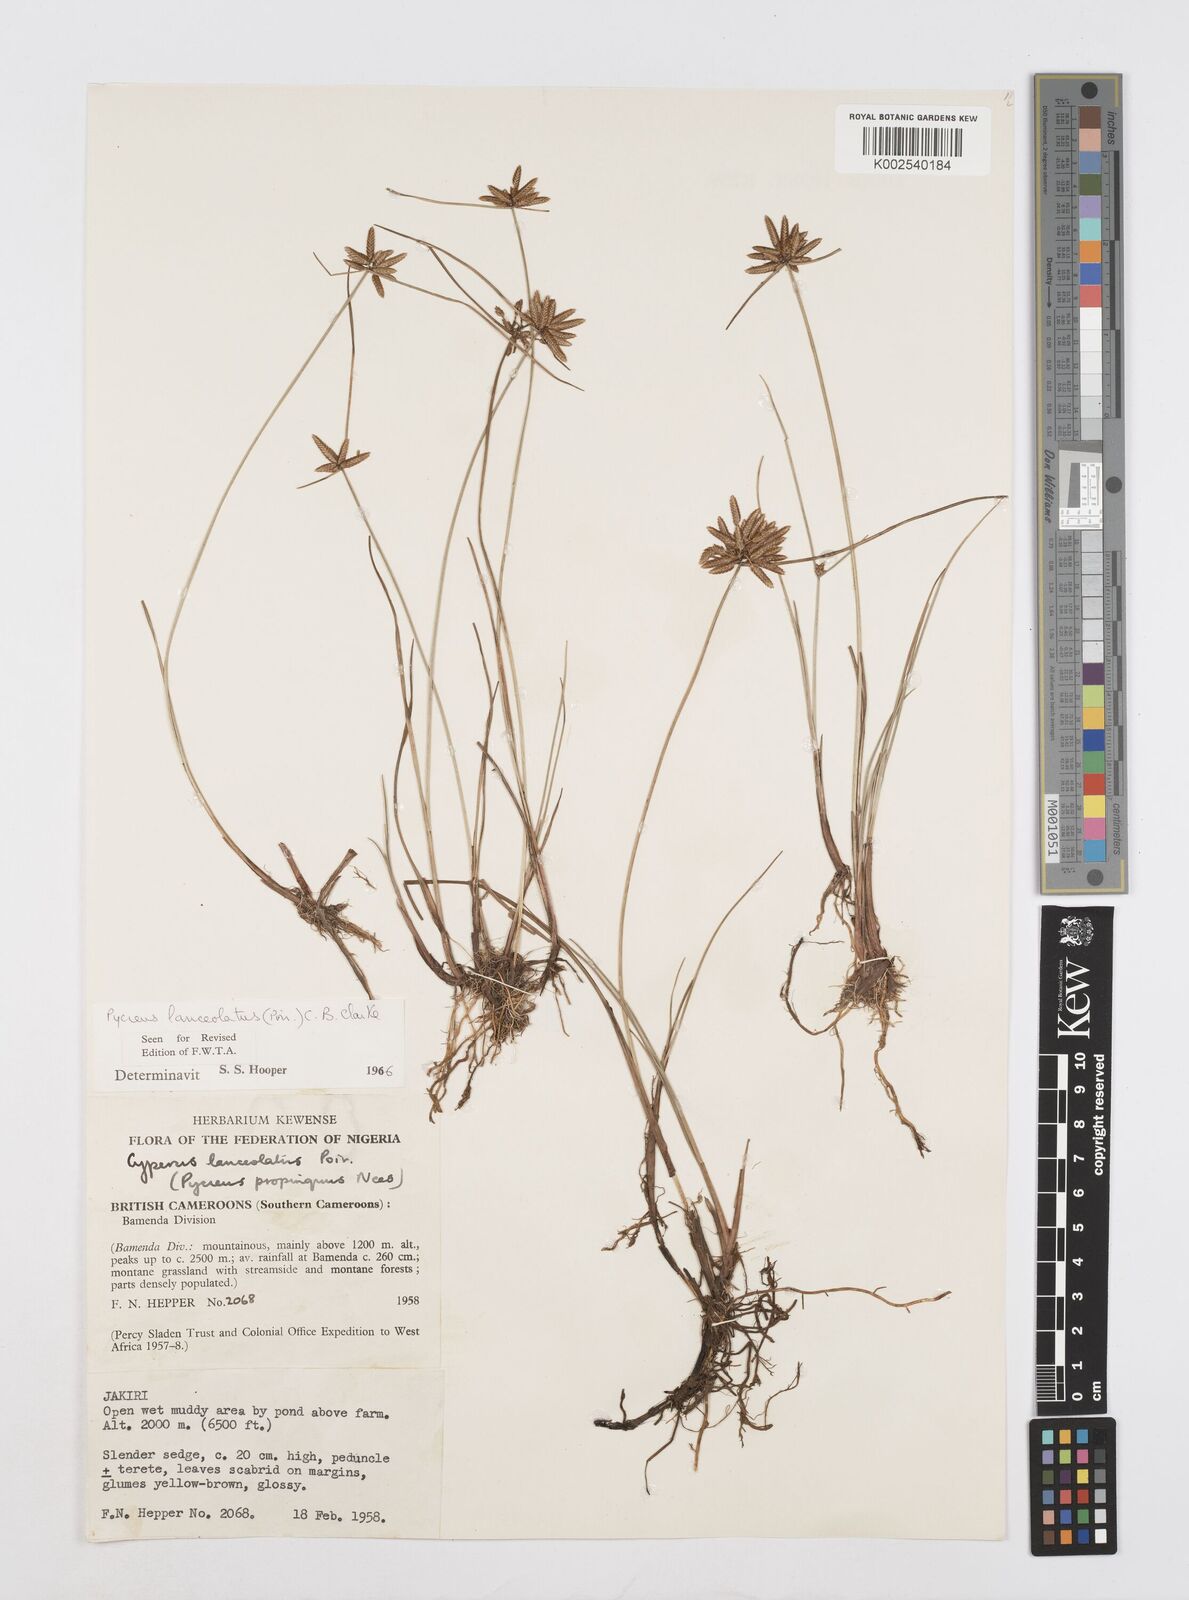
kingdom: Plantae
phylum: Tracheophyta
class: Liliopsida
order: Poales
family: Cyperaceae
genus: Cyperus
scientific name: Cyperus
